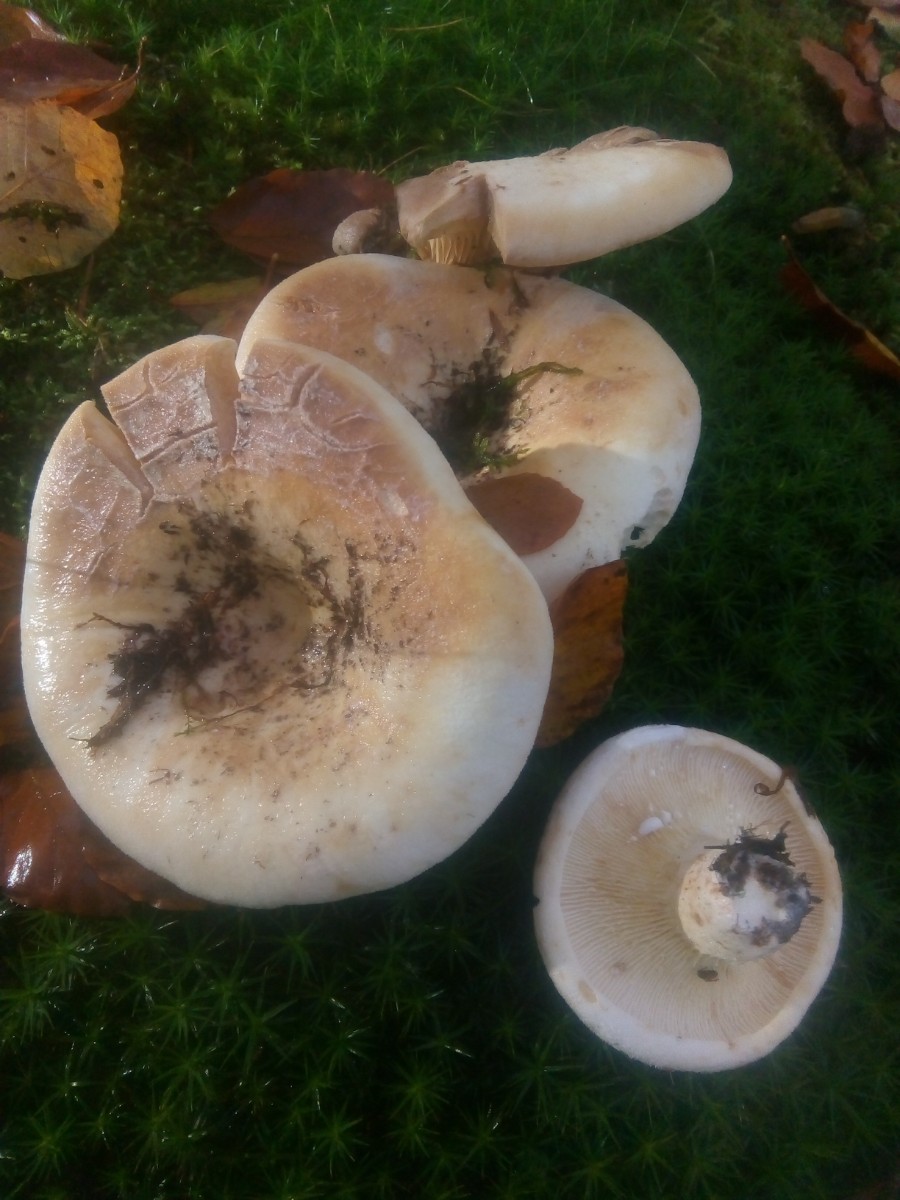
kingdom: Fungi
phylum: Basidiomycota
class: Agaricomycetes
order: Russulales
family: Russulaceae
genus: Lactifluus
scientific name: Lactifluus vellereus
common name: hvidfiltet mælkehat
